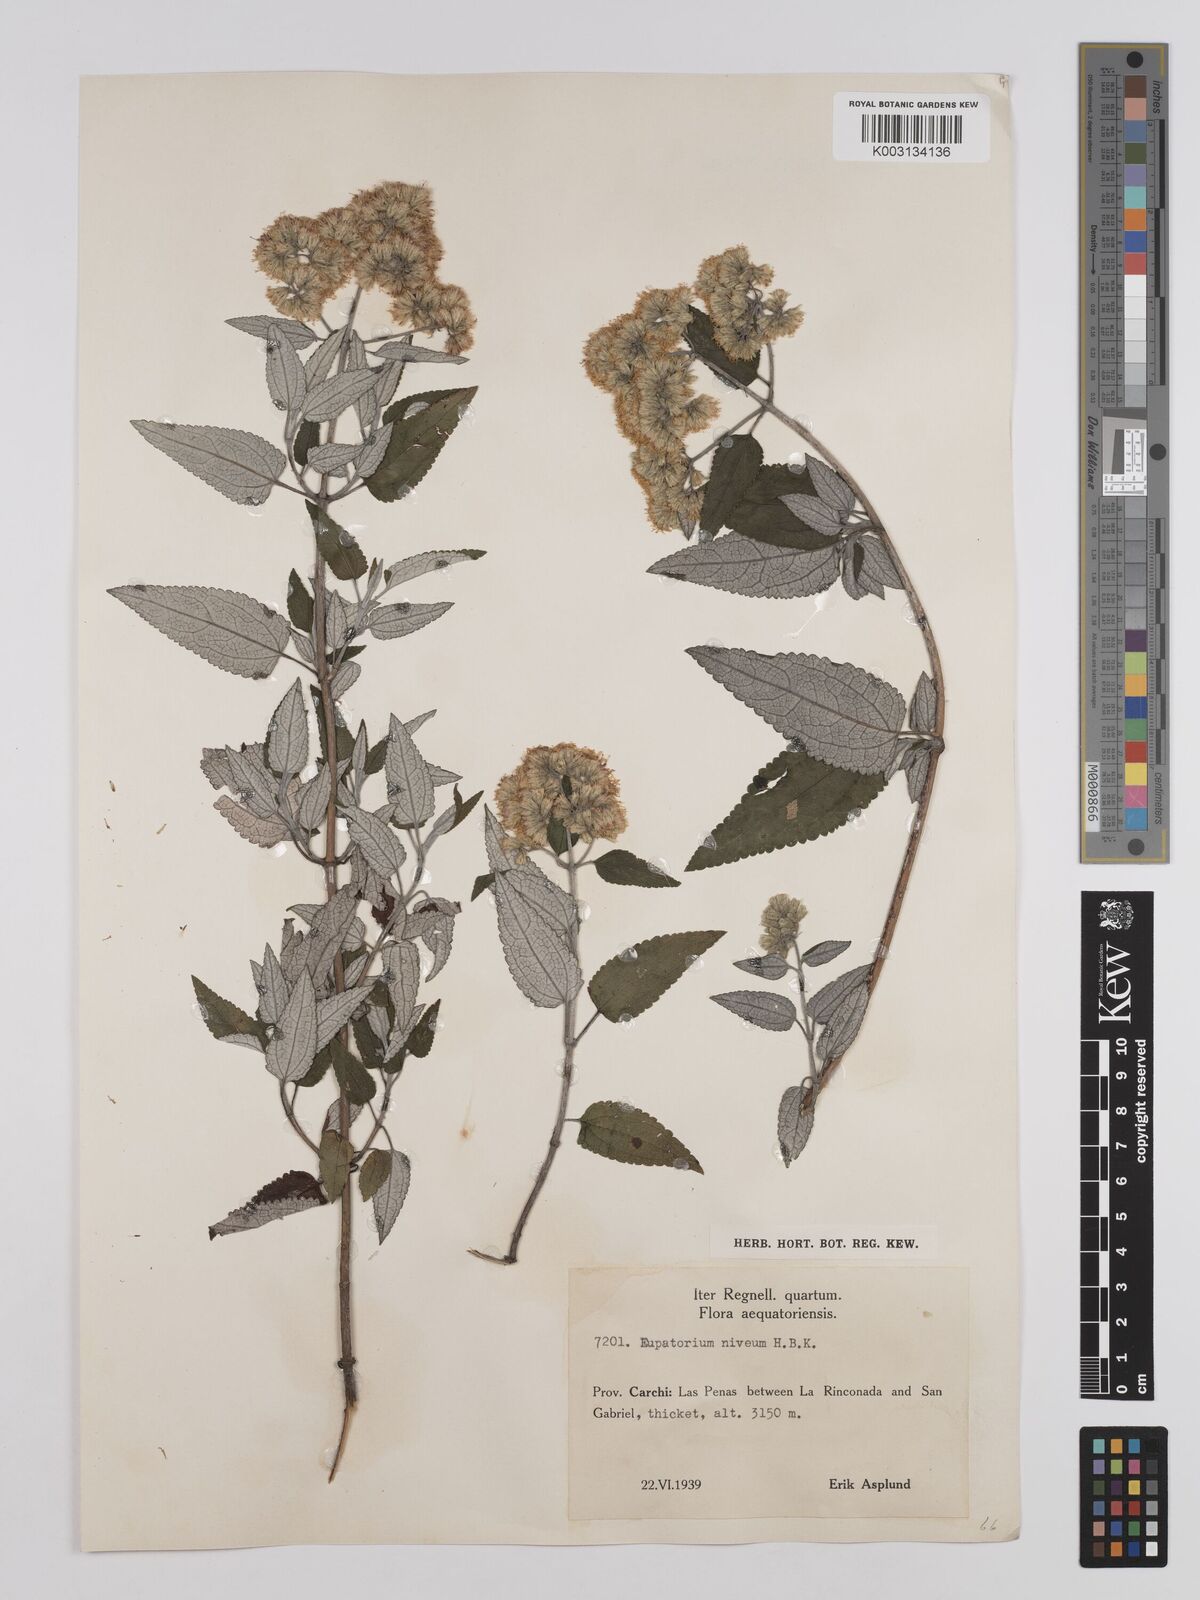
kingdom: Plantae
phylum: Tracheophyta
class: Magnoliopsida
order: Asterales
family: Asteraceae
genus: Cronquistianthus
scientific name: Cronquistianthus niveus
